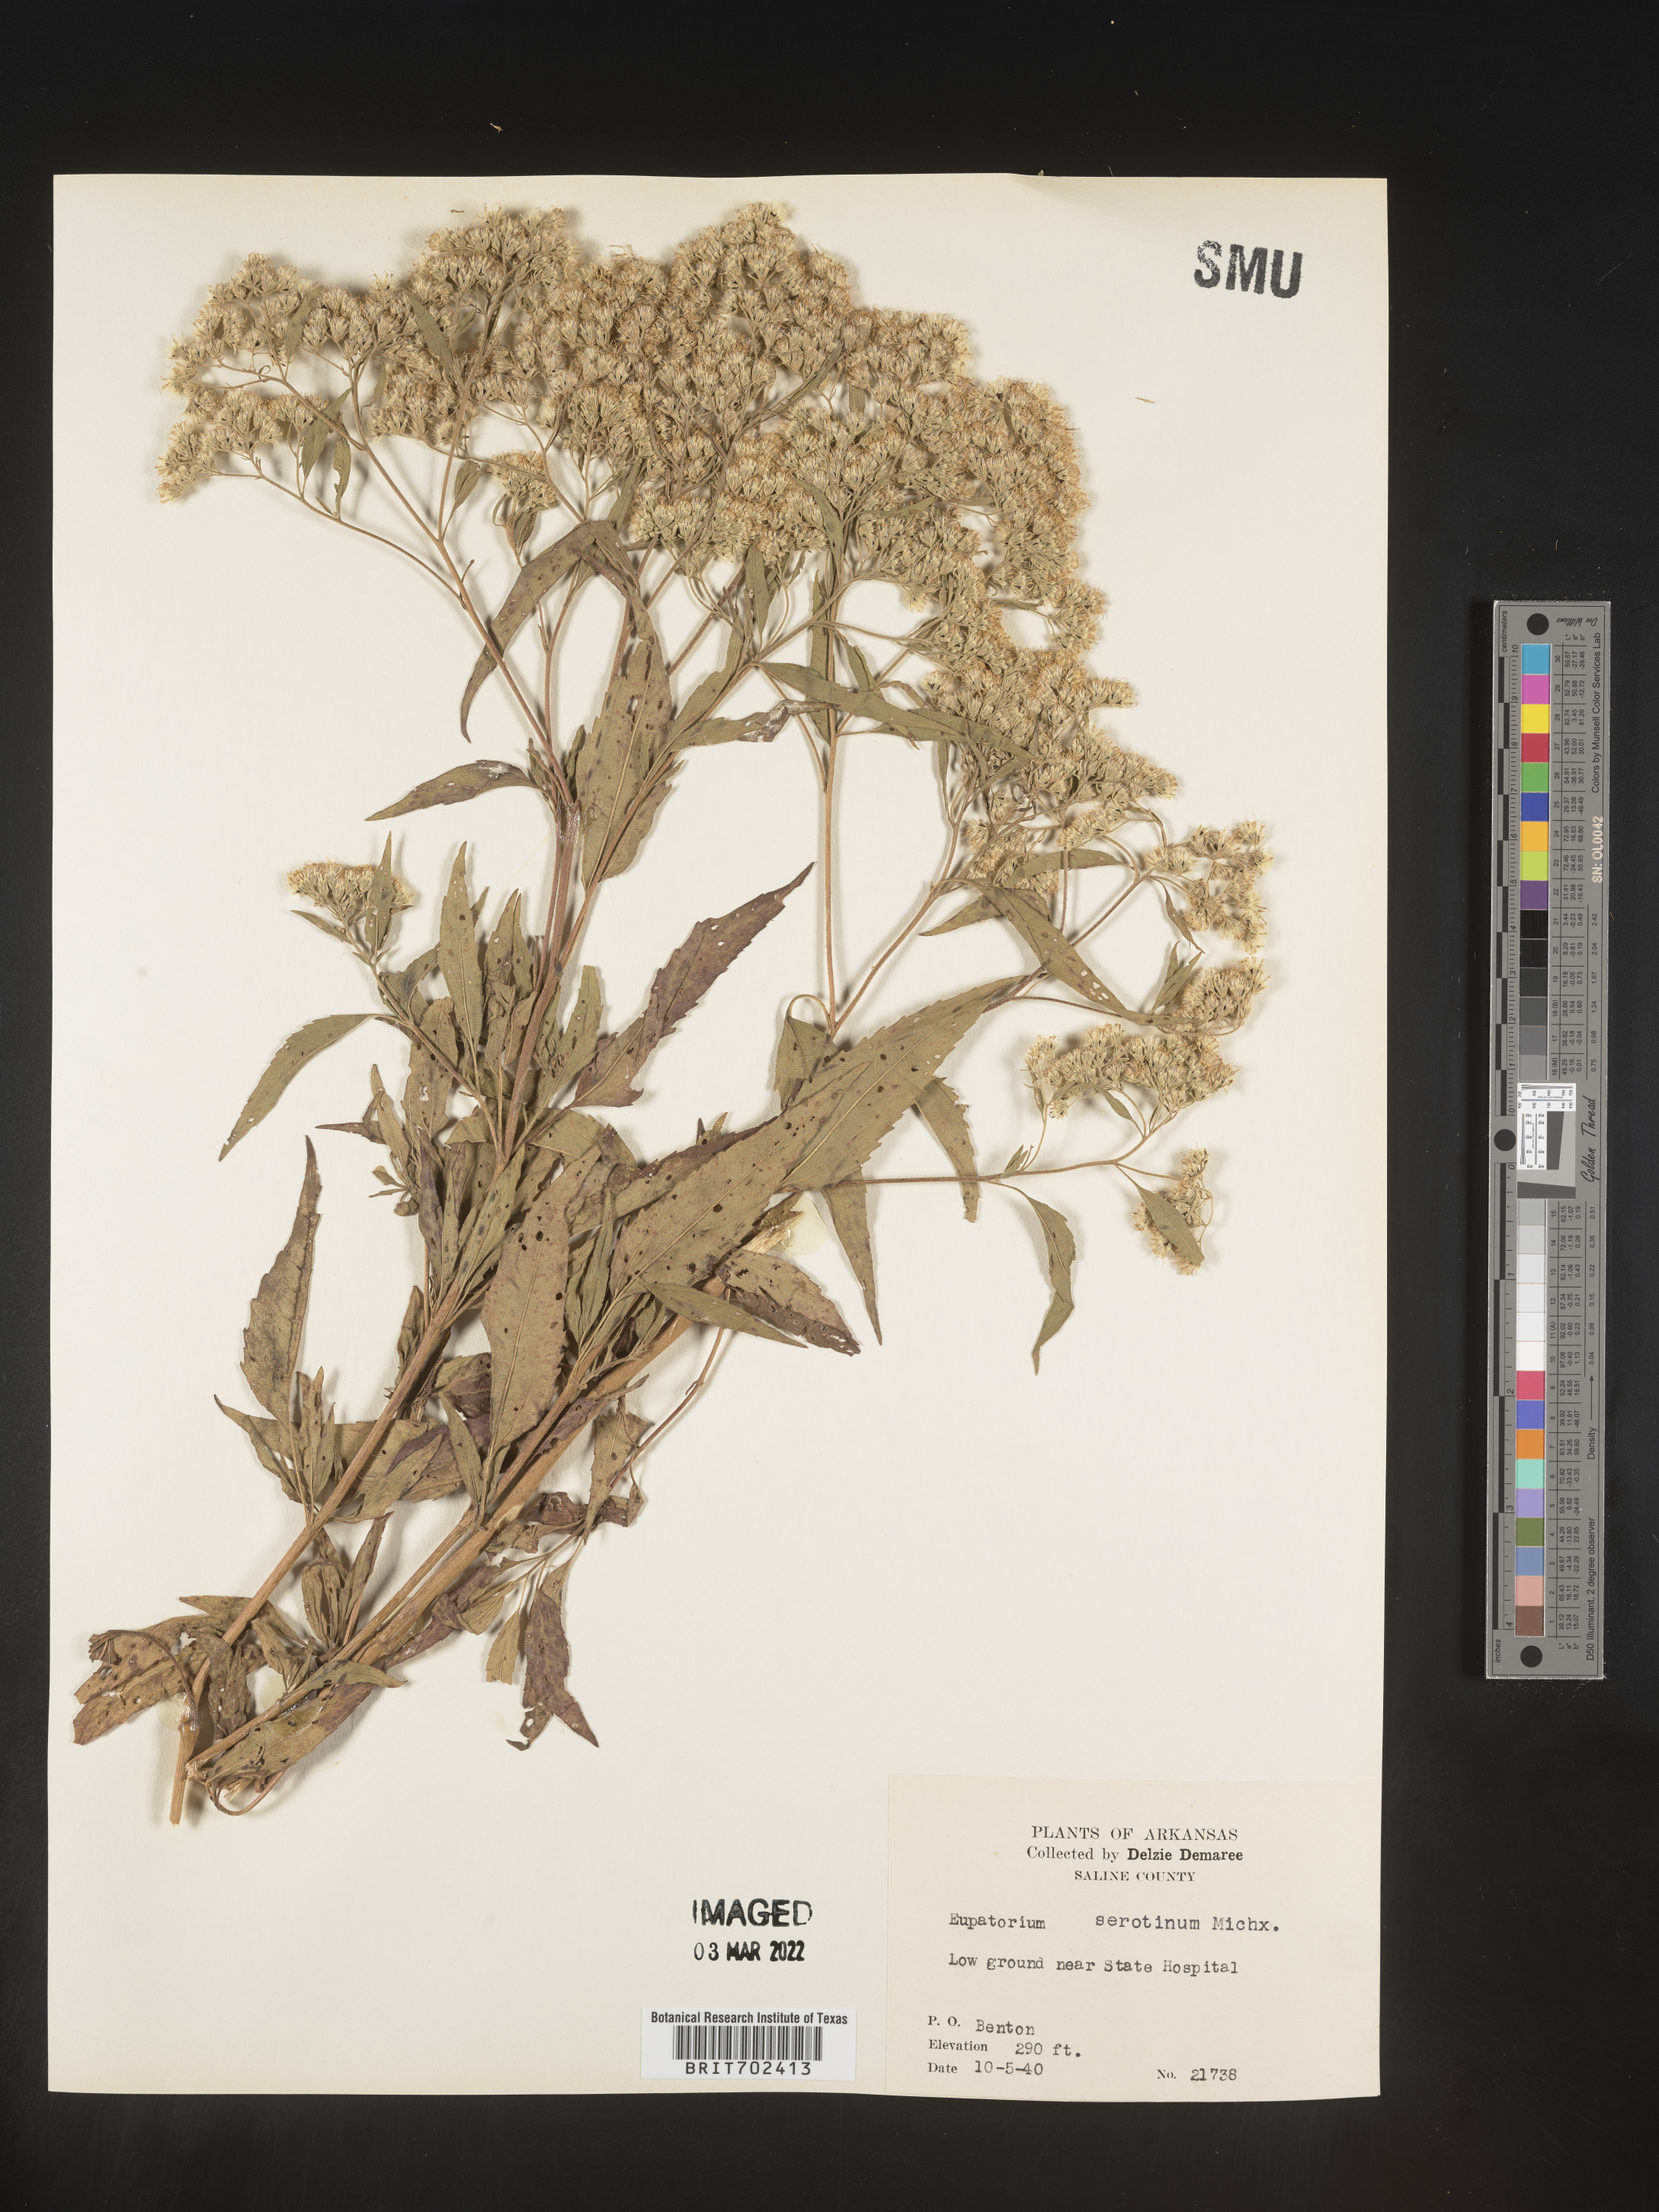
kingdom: Plantae
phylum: Tracheophyta
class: Magnoliopsida
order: Asterales
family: Asteraceae
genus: Eupatorium
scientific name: Eupatorium serotinum
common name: Late boneset
